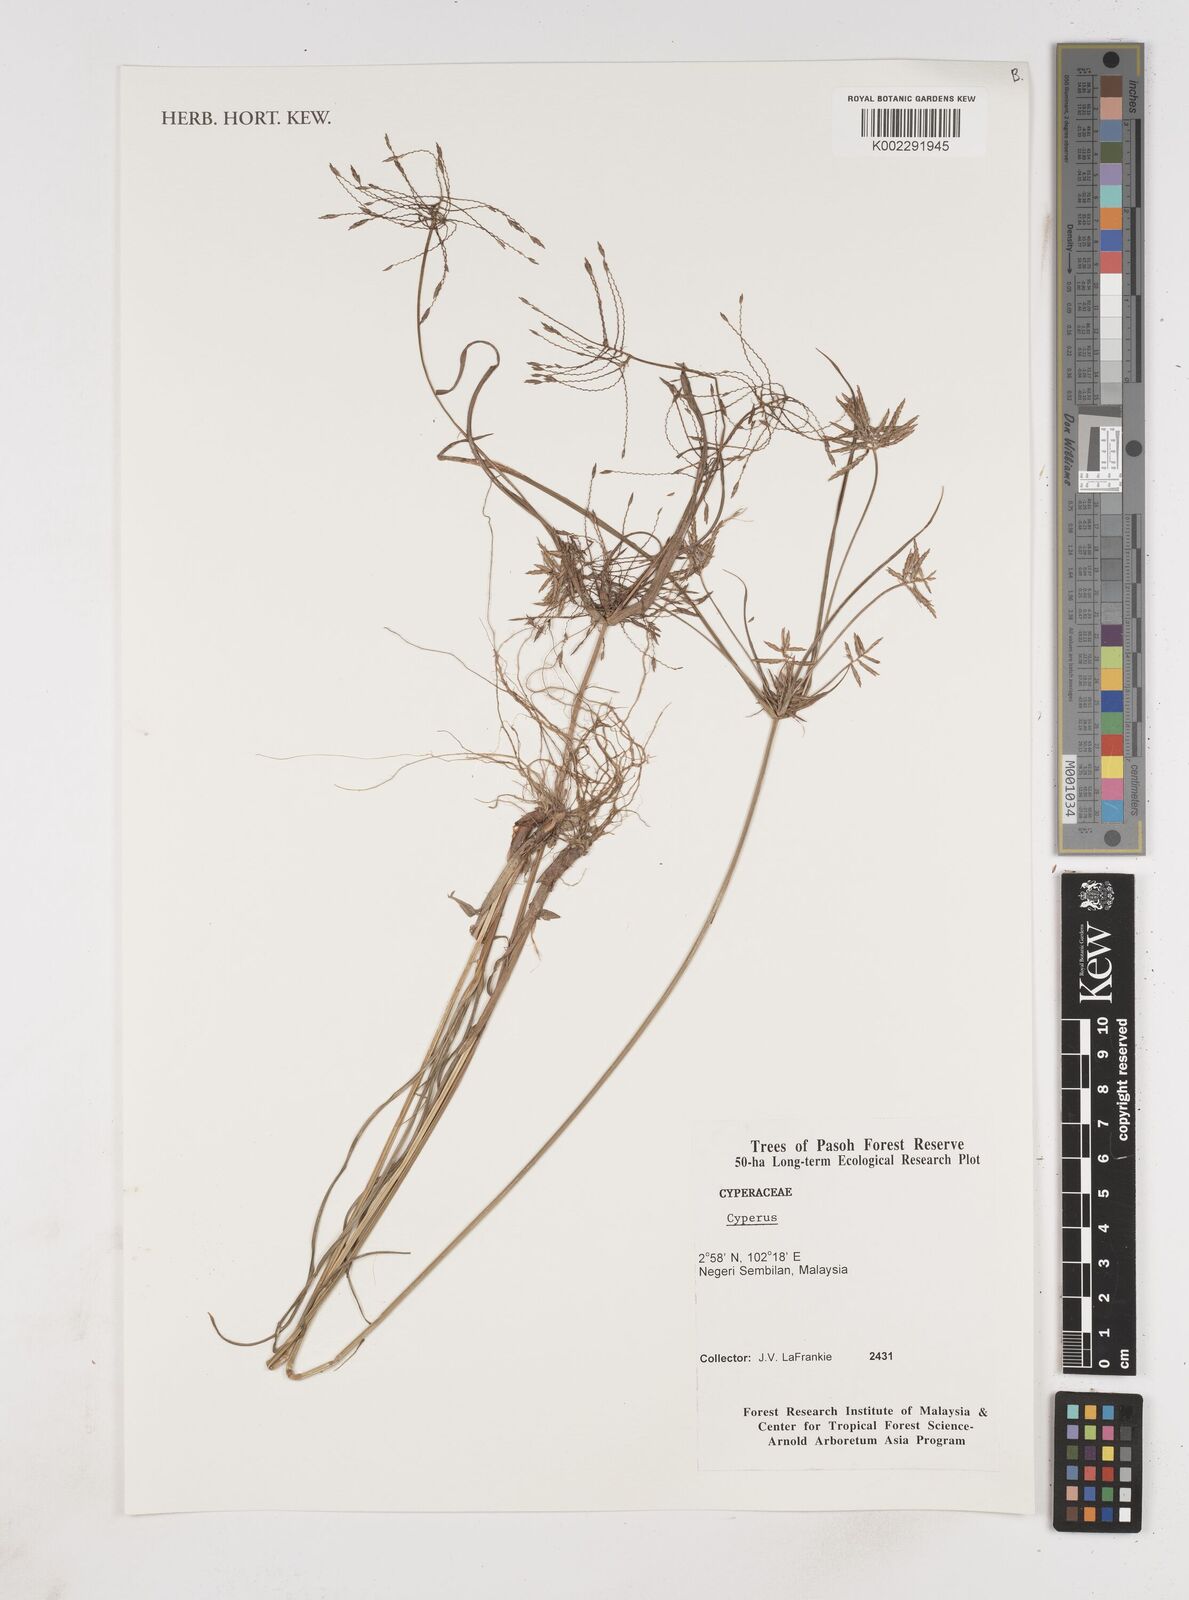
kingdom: Plantae
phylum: Tracheophyta
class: Liliopsida
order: Poales
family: Cyperaceae
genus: Cyperus
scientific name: Cyperus
